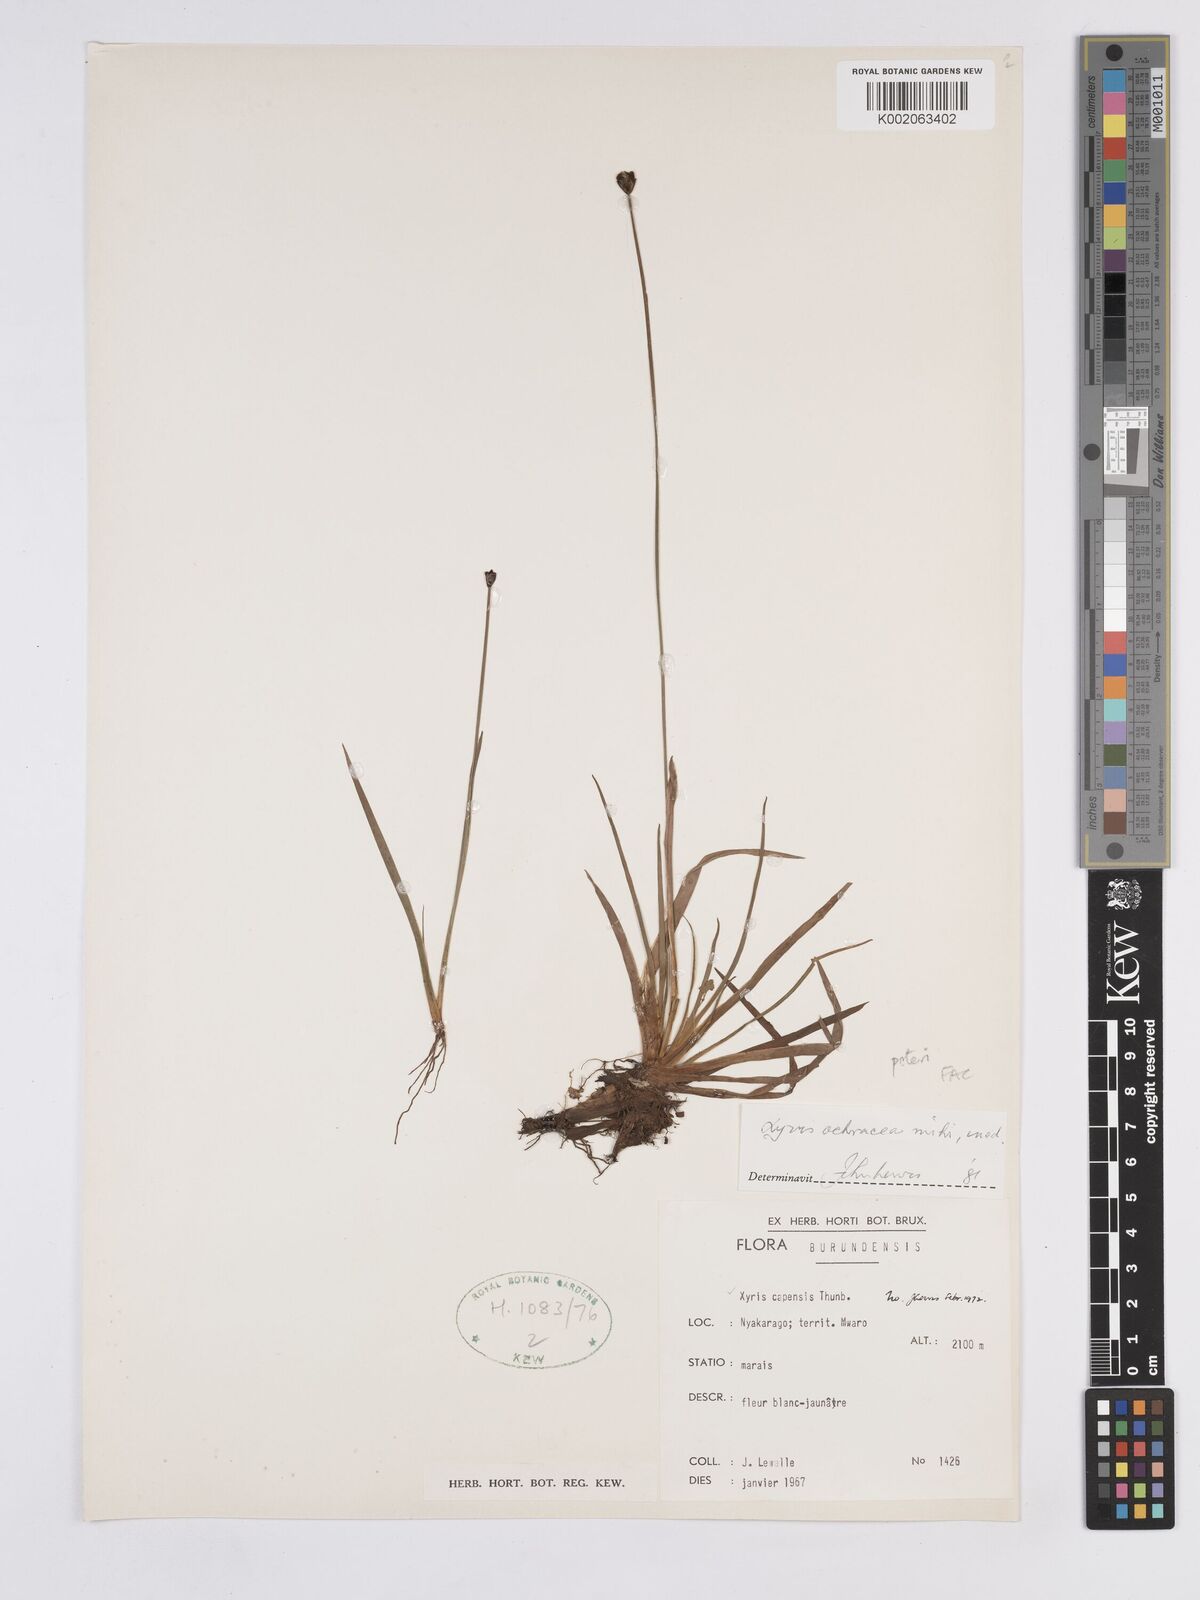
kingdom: Plantae
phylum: Tracheophyta
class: Liliopsida
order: Poales
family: Xyridaceae
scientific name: Xyridaceae
